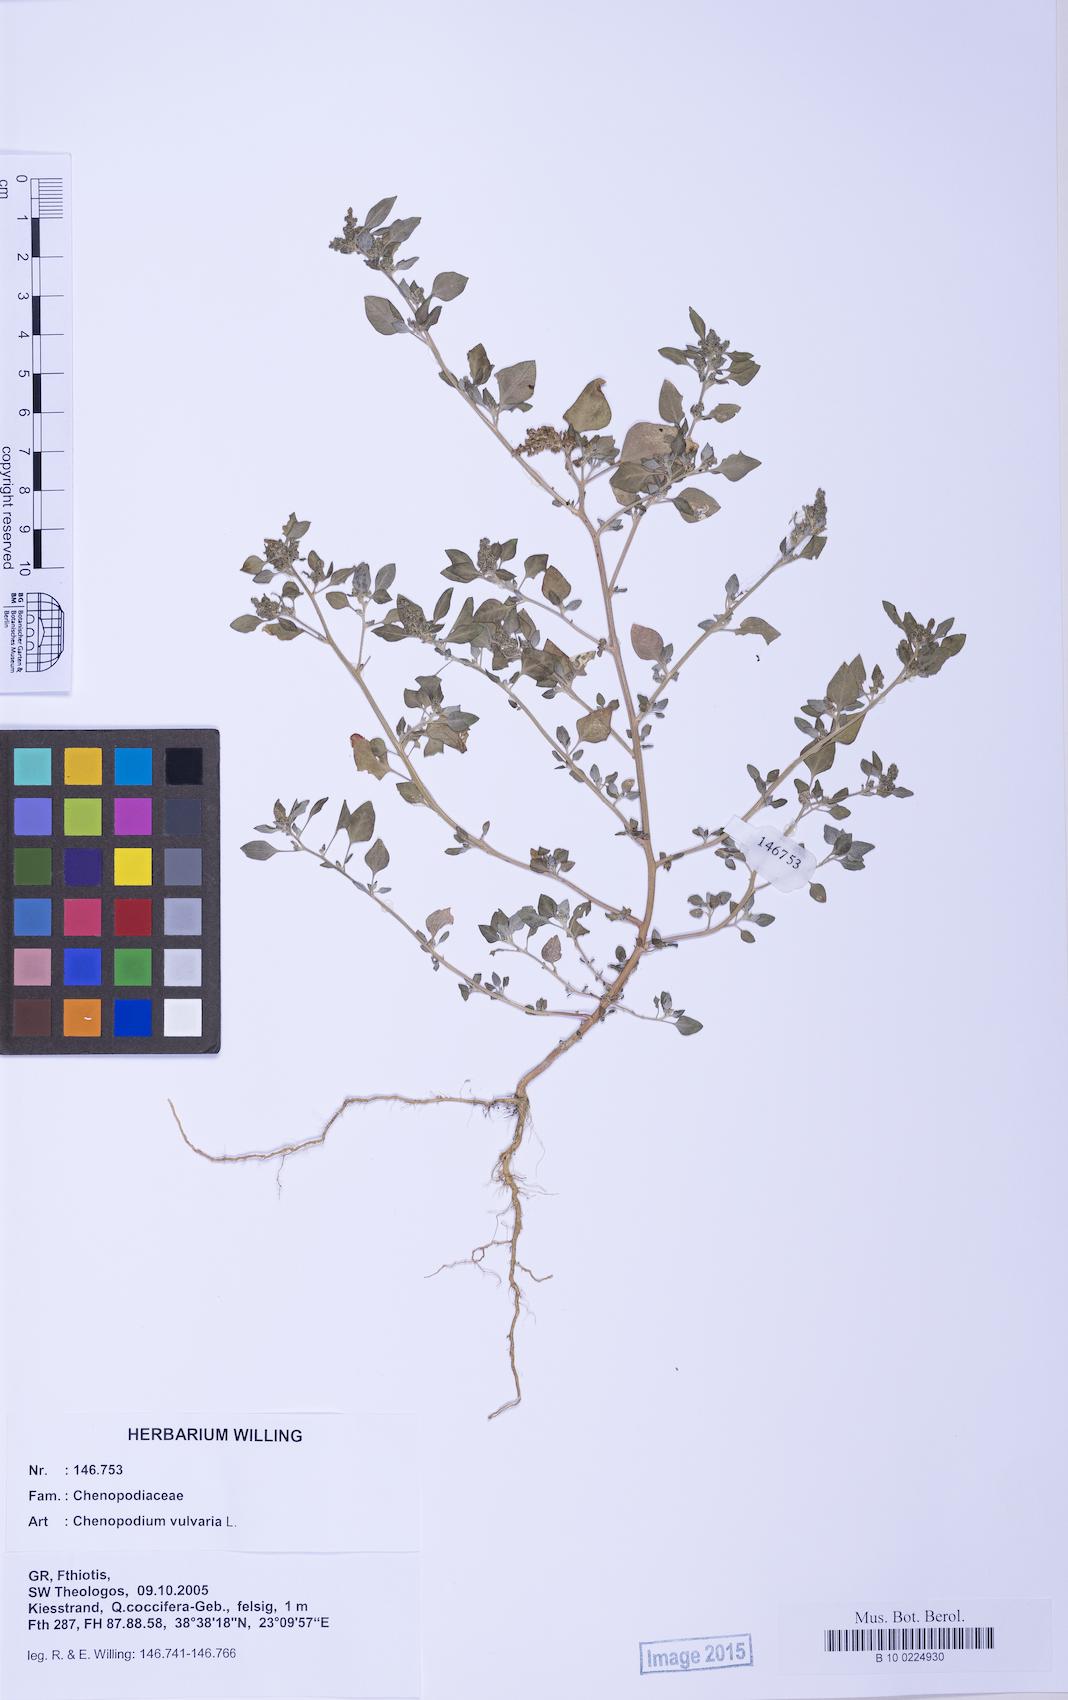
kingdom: Plantae
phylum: Tracheophyta
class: Magnoliopsida
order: Caryophyllales
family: Amaranthaceae
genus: Chenopodium
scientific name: Chenopodium vulvaria
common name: Stinking goosefoot
